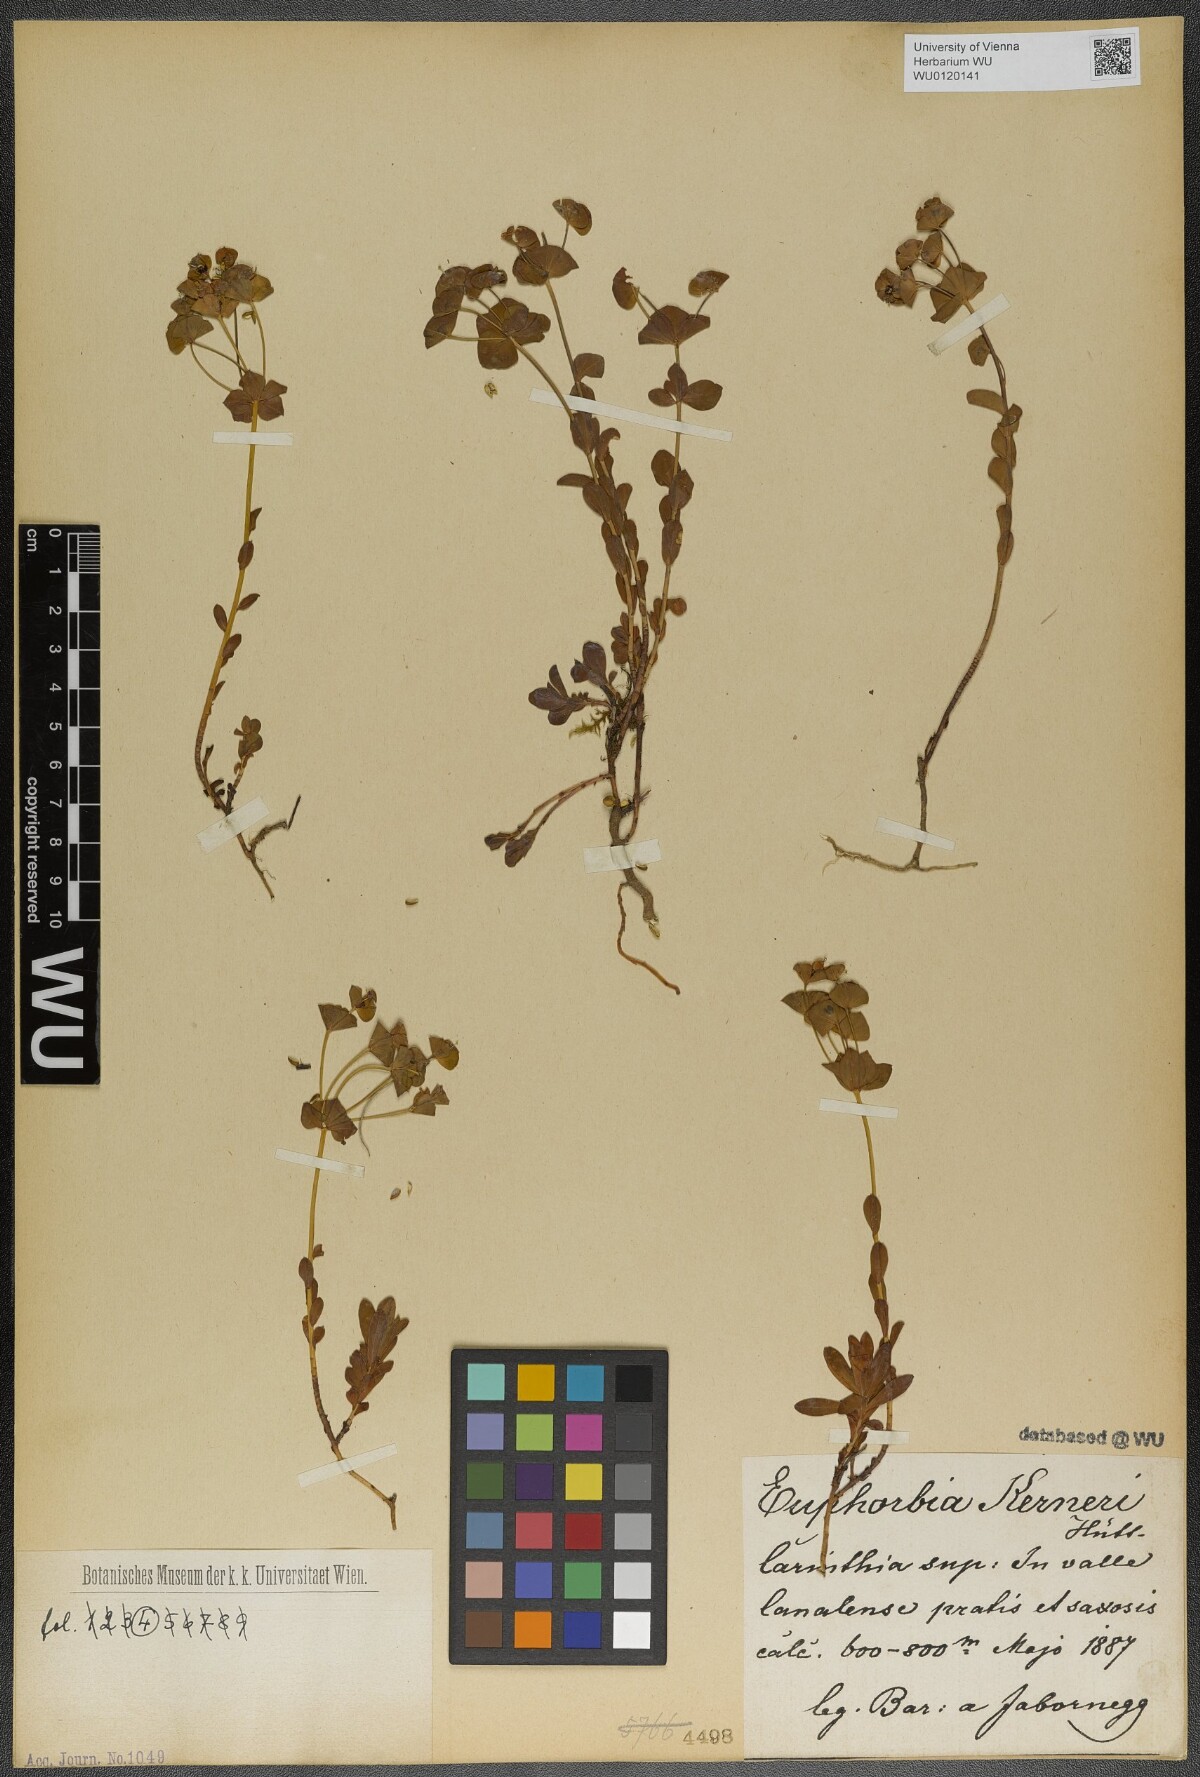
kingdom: Plantae
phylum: Tracheophyta
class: Magnoliopsida
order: Malpighiales
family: Euphorbiaceae
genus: Euphorbia
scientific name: Euphorbia kerneri
